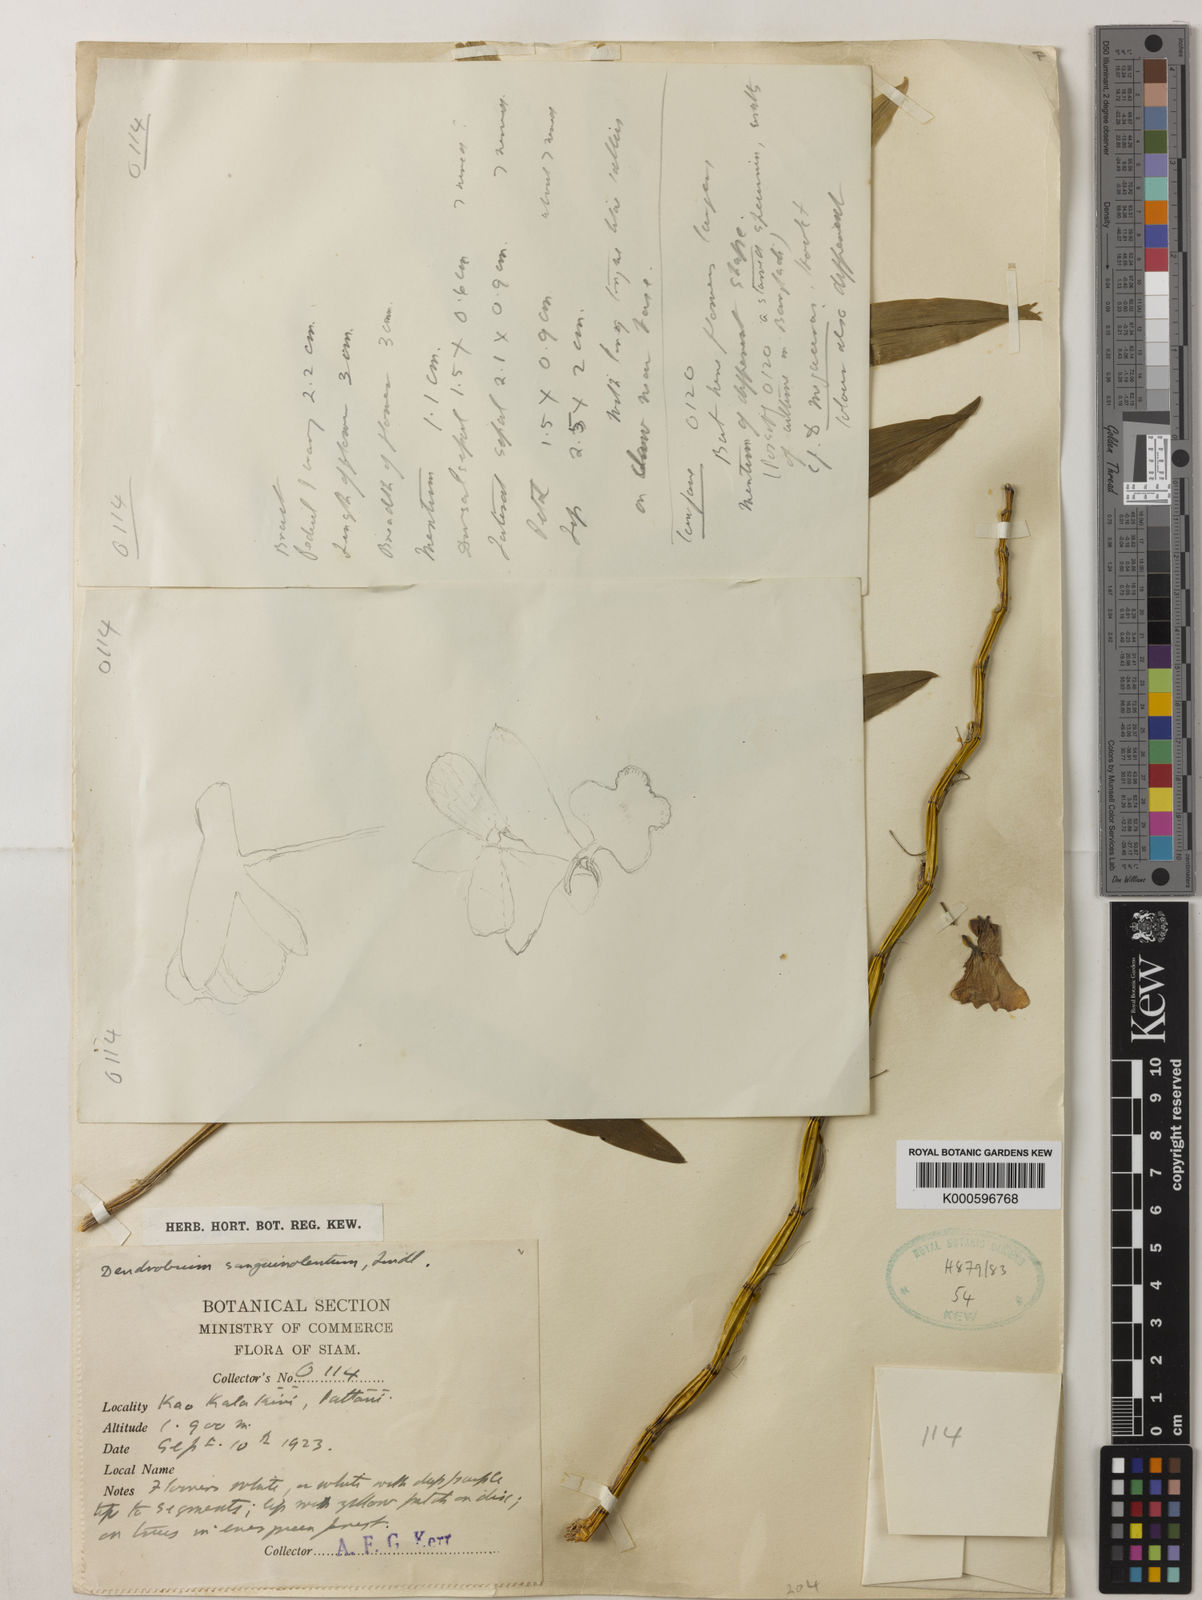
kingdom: Plantae
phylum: Tracheophyta
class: Liliopsida
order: Asparagales
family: Orchidaceae
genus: Dendrobium
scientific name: Dendrobium sanguinolentum
